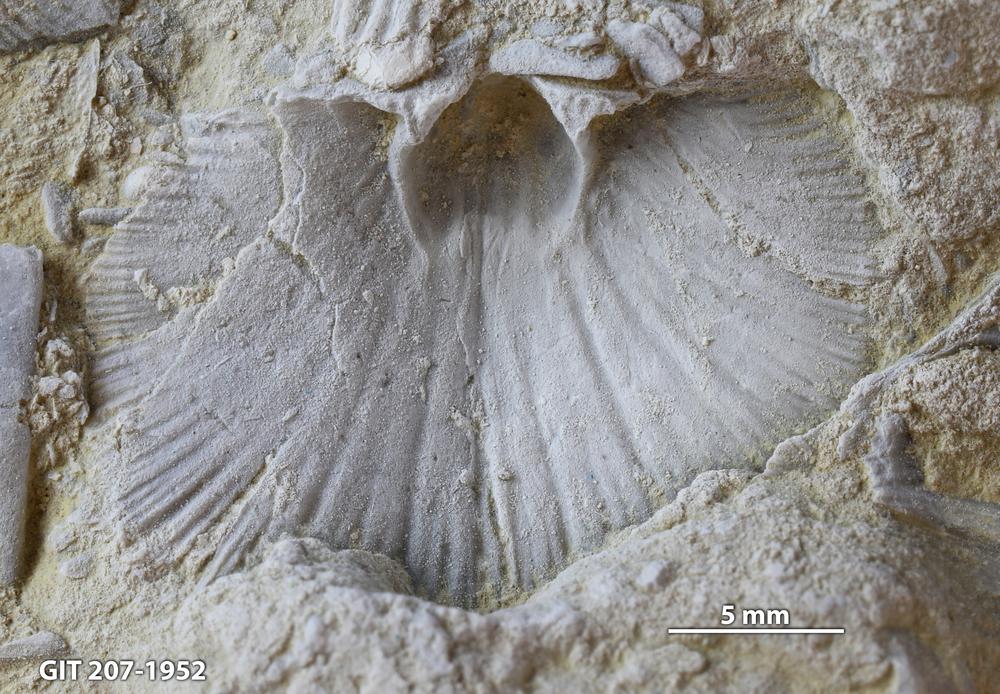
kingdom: Animalia
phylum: Brachiopoda
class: Rhynchonellata
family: Harknessellidae
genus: Horderleyella
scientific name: Horderleyella Dalmanella kegelensis
